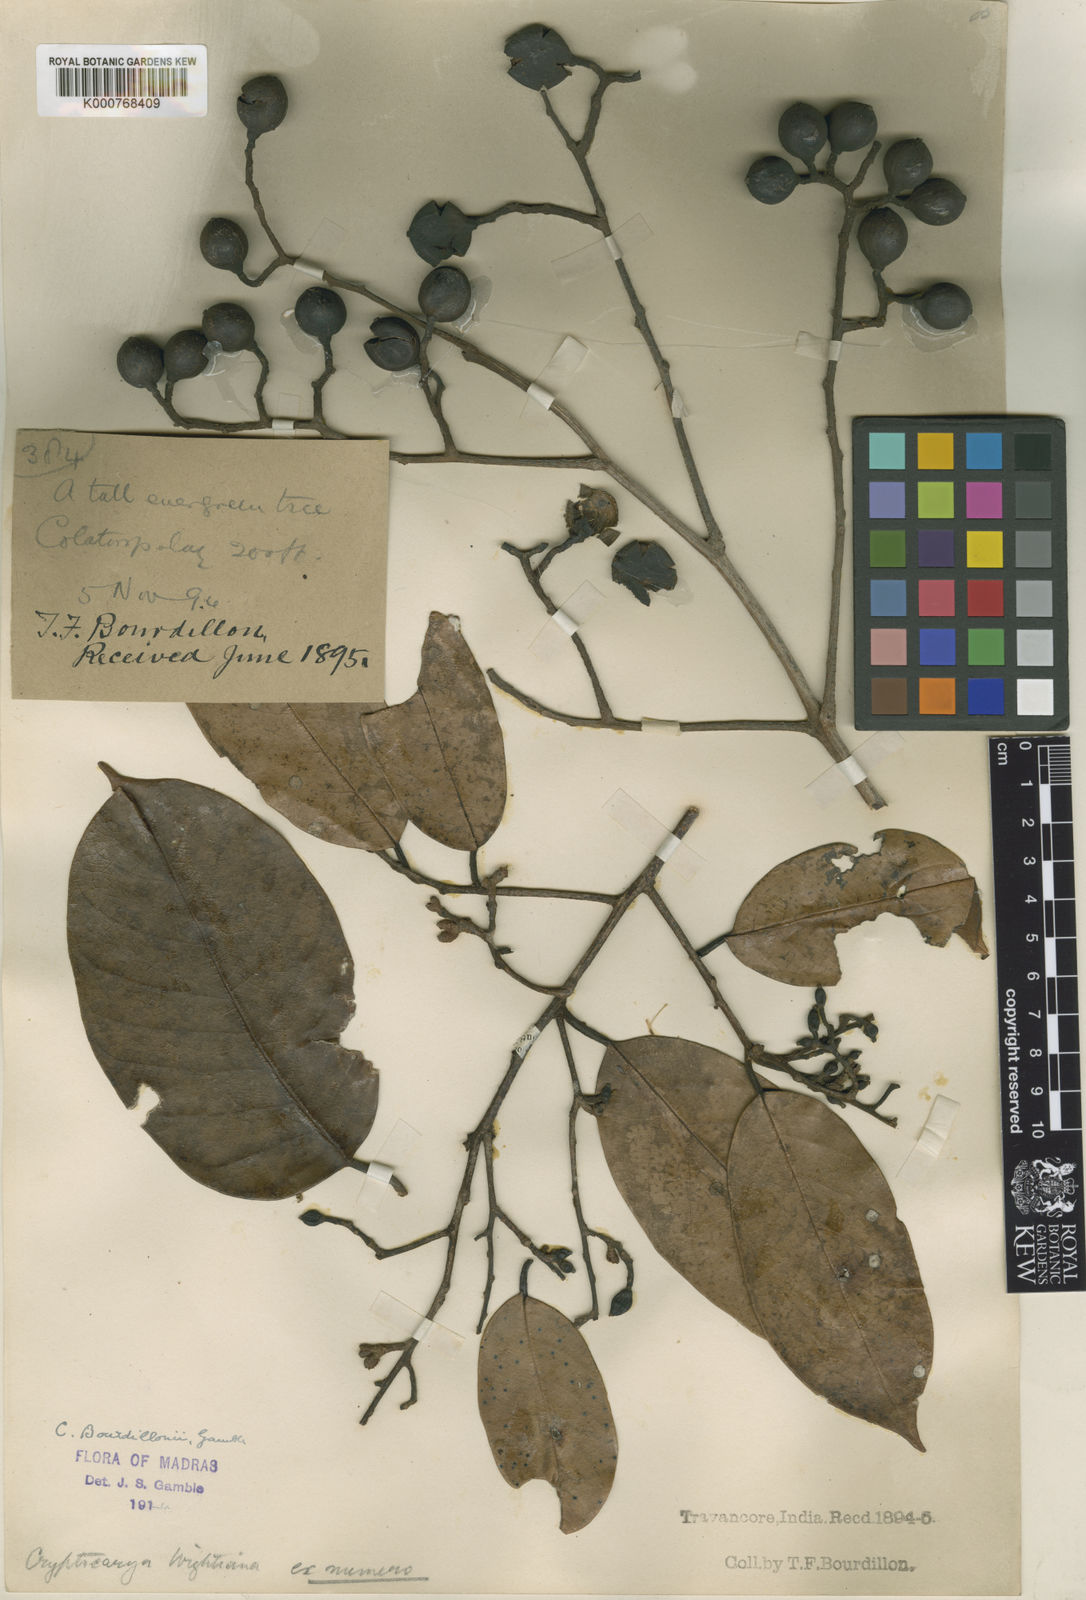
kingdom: Plantae
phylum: Tracheophyta
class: Magnoliopsida
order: Laurales
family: Lauraceae
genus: Cryptocarya
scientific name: Cryptocarya wightiana
